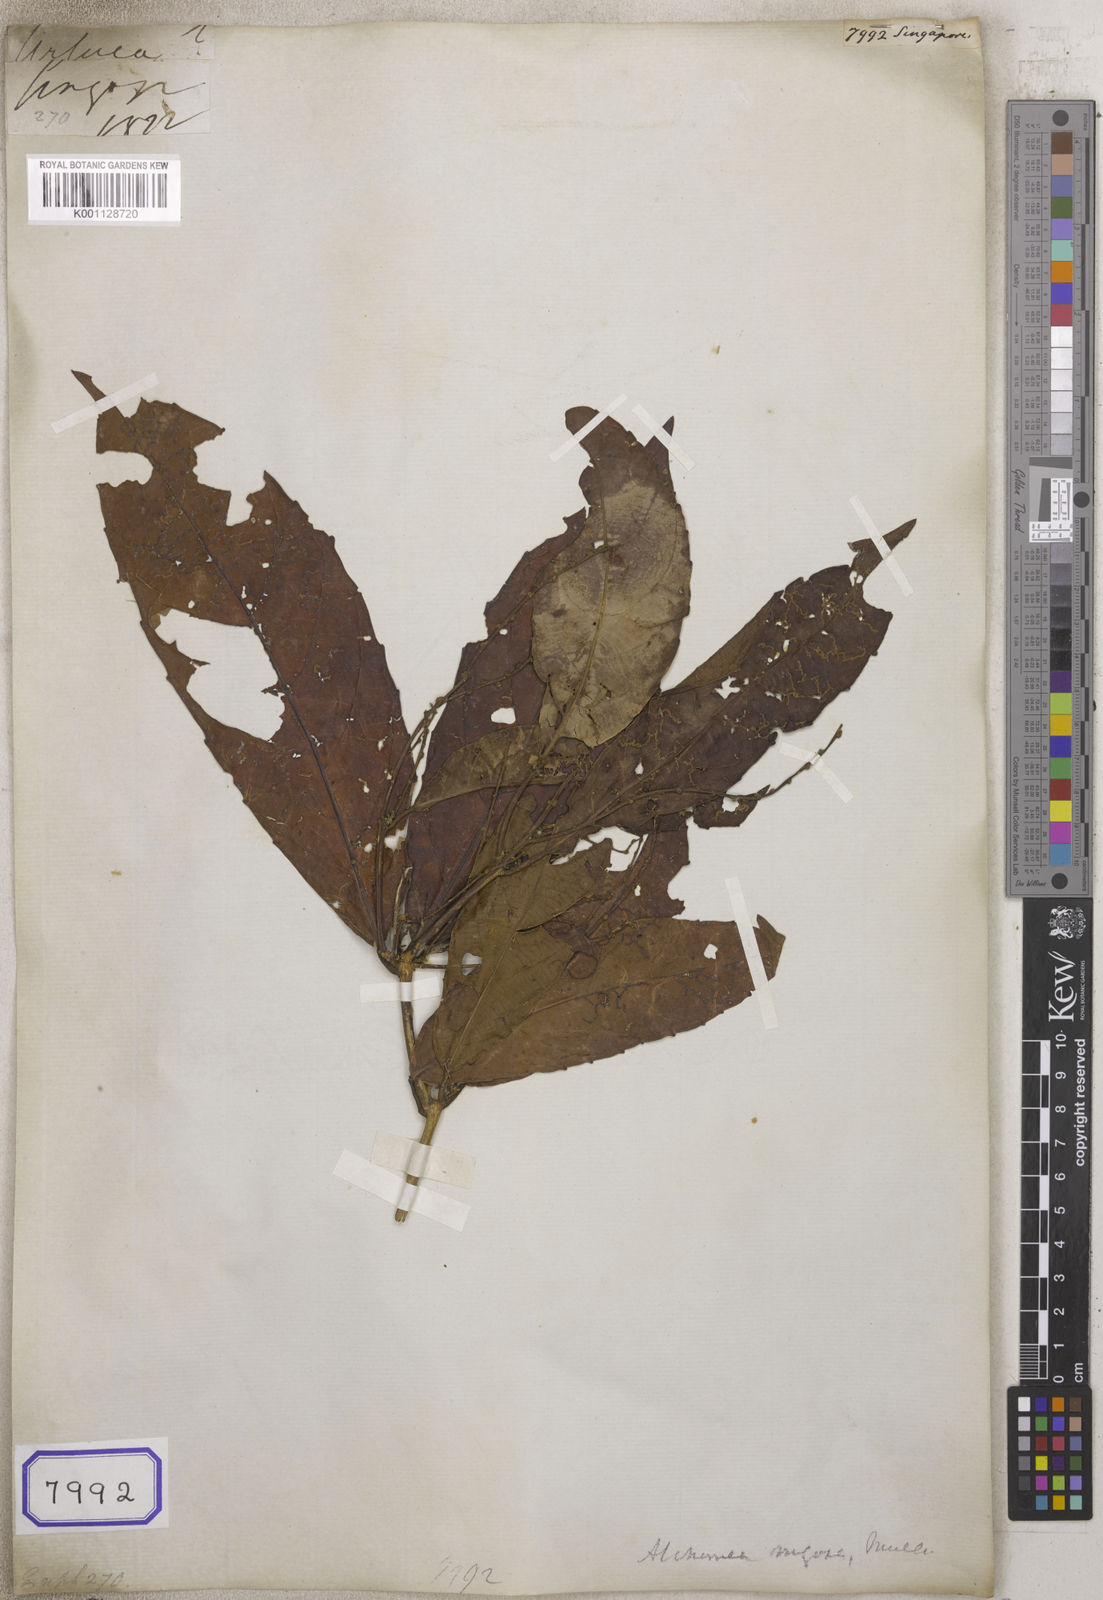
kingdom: Plantae
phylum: Tracheophyta
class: Magnoliopsida
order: Malpighiales
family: Euphorbiaceae
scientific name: Euphorbiaceae
